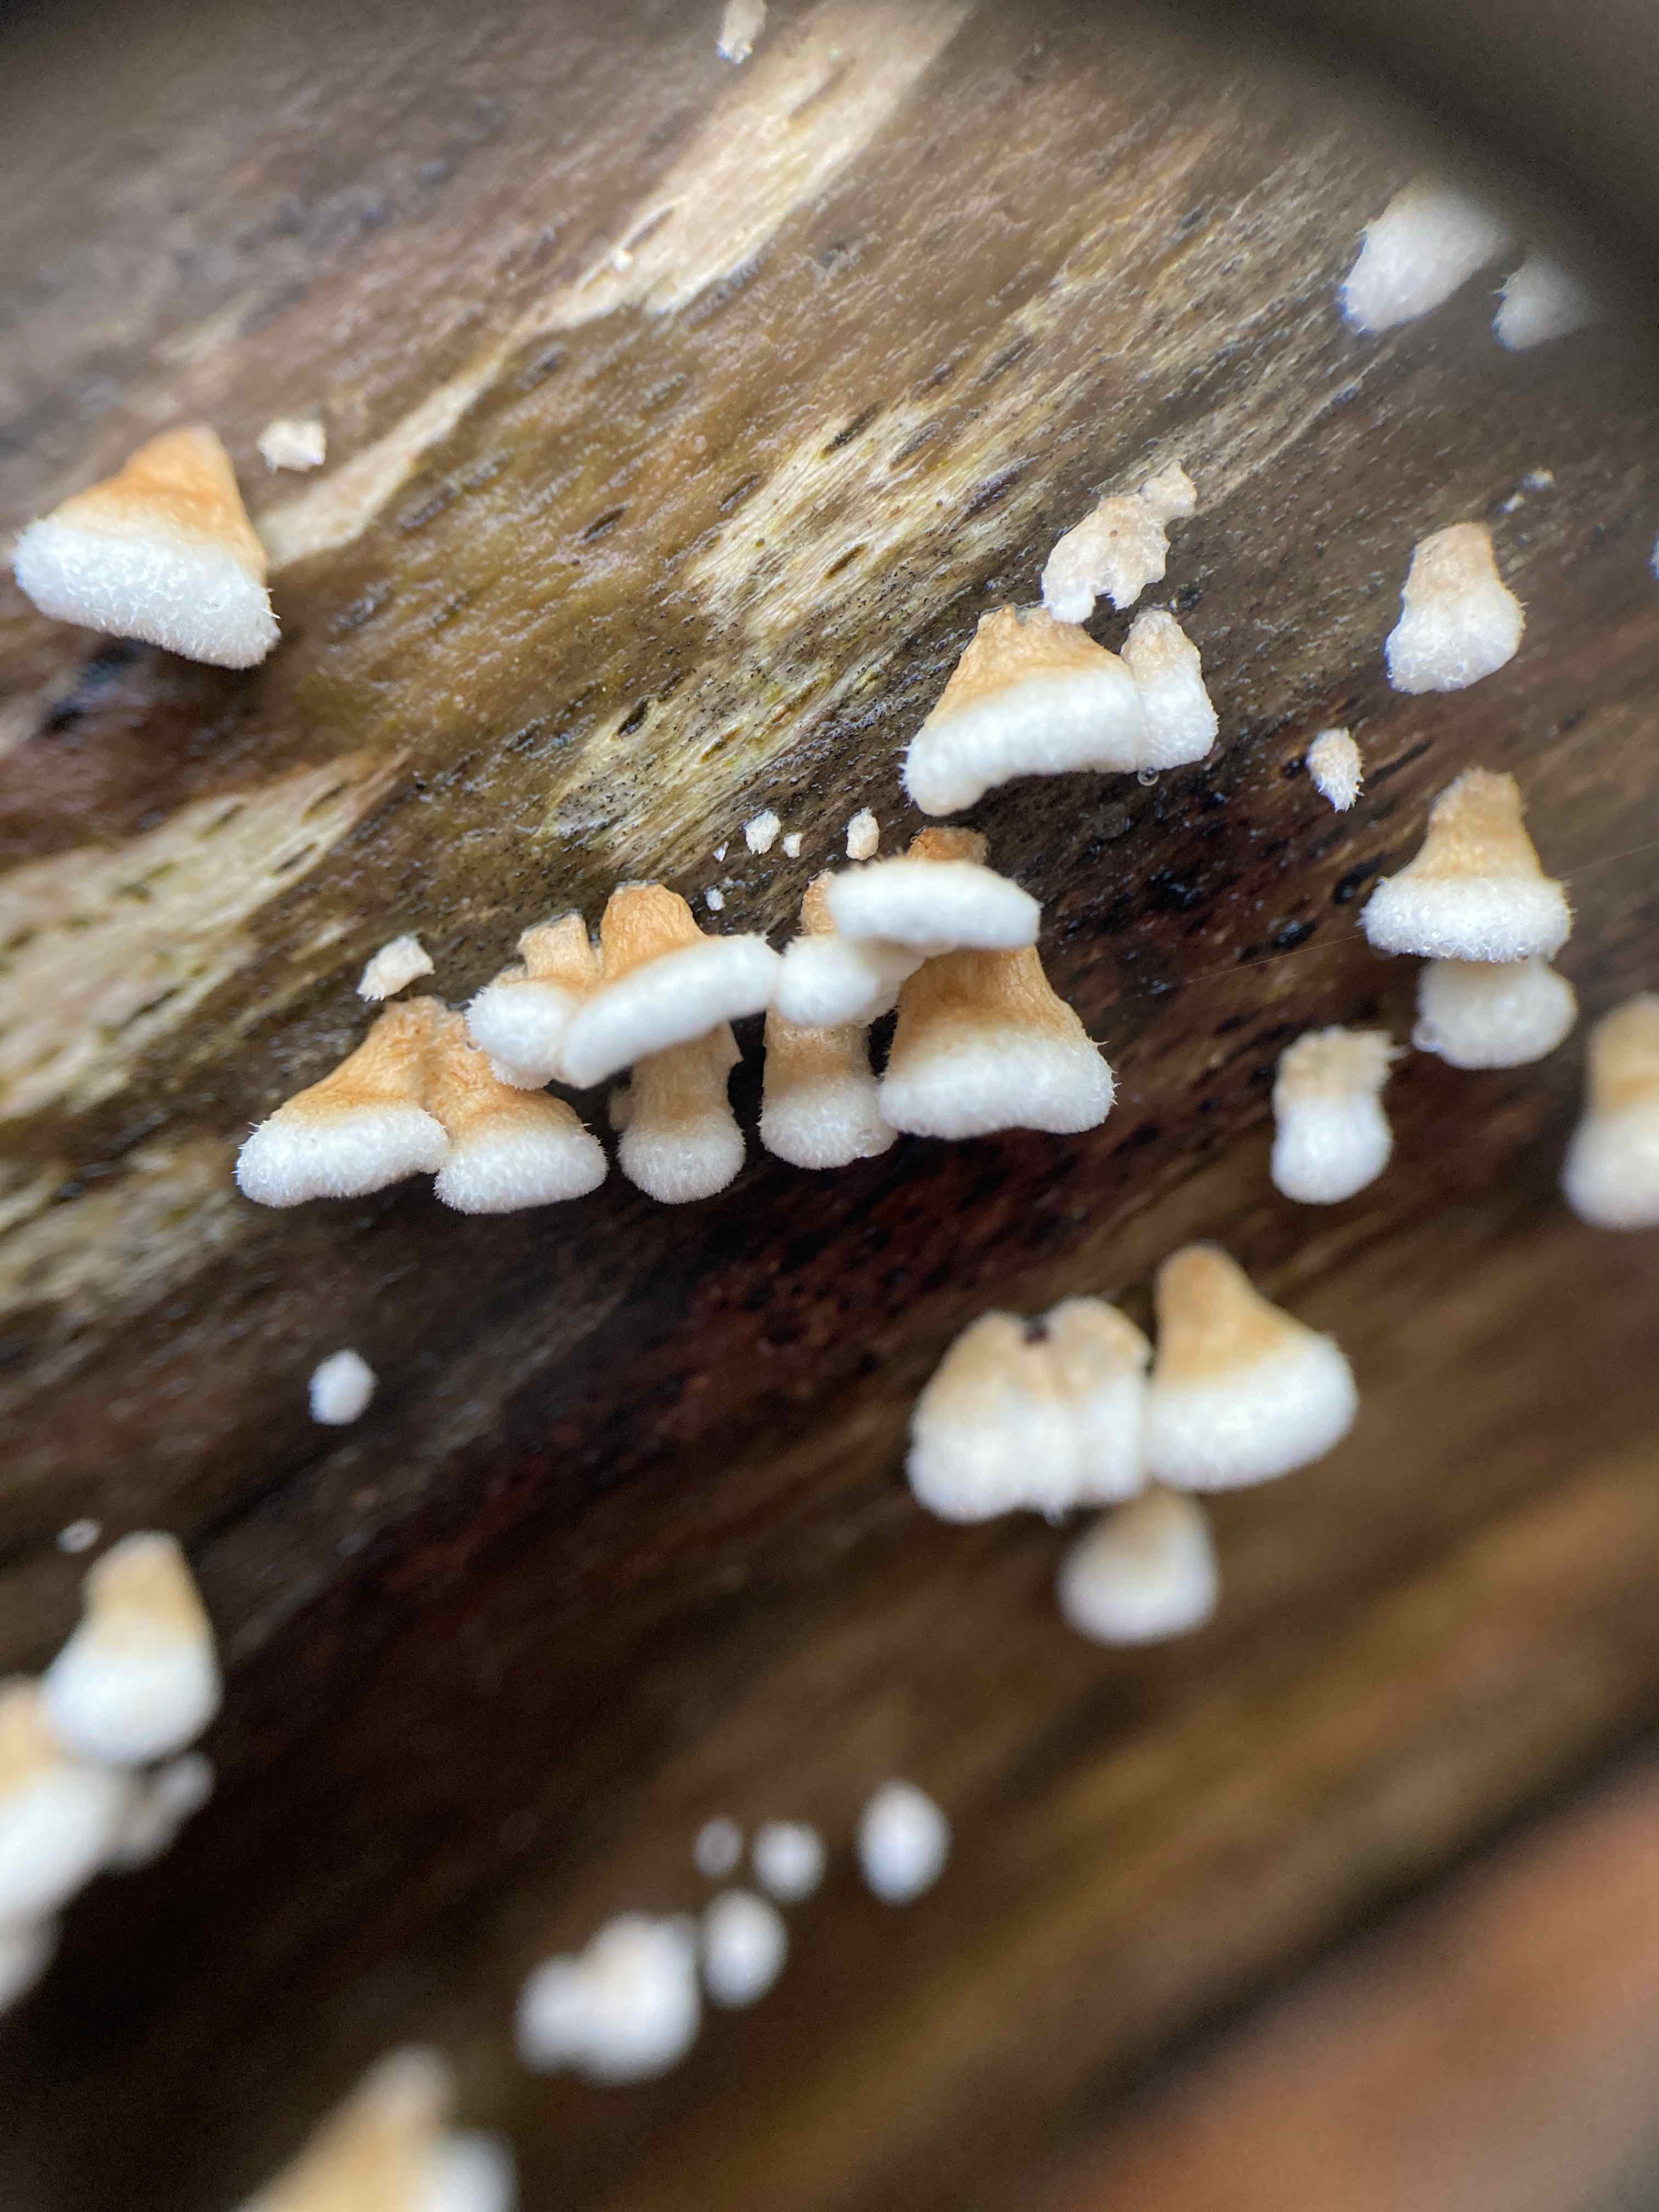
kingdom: Fungi
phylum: Basidiomycota
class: Agaricomycetes
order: Amylocorticiales
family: Amylocorticiaceae
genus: Plicaturopsis
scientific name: Plicaturopsis crispa
